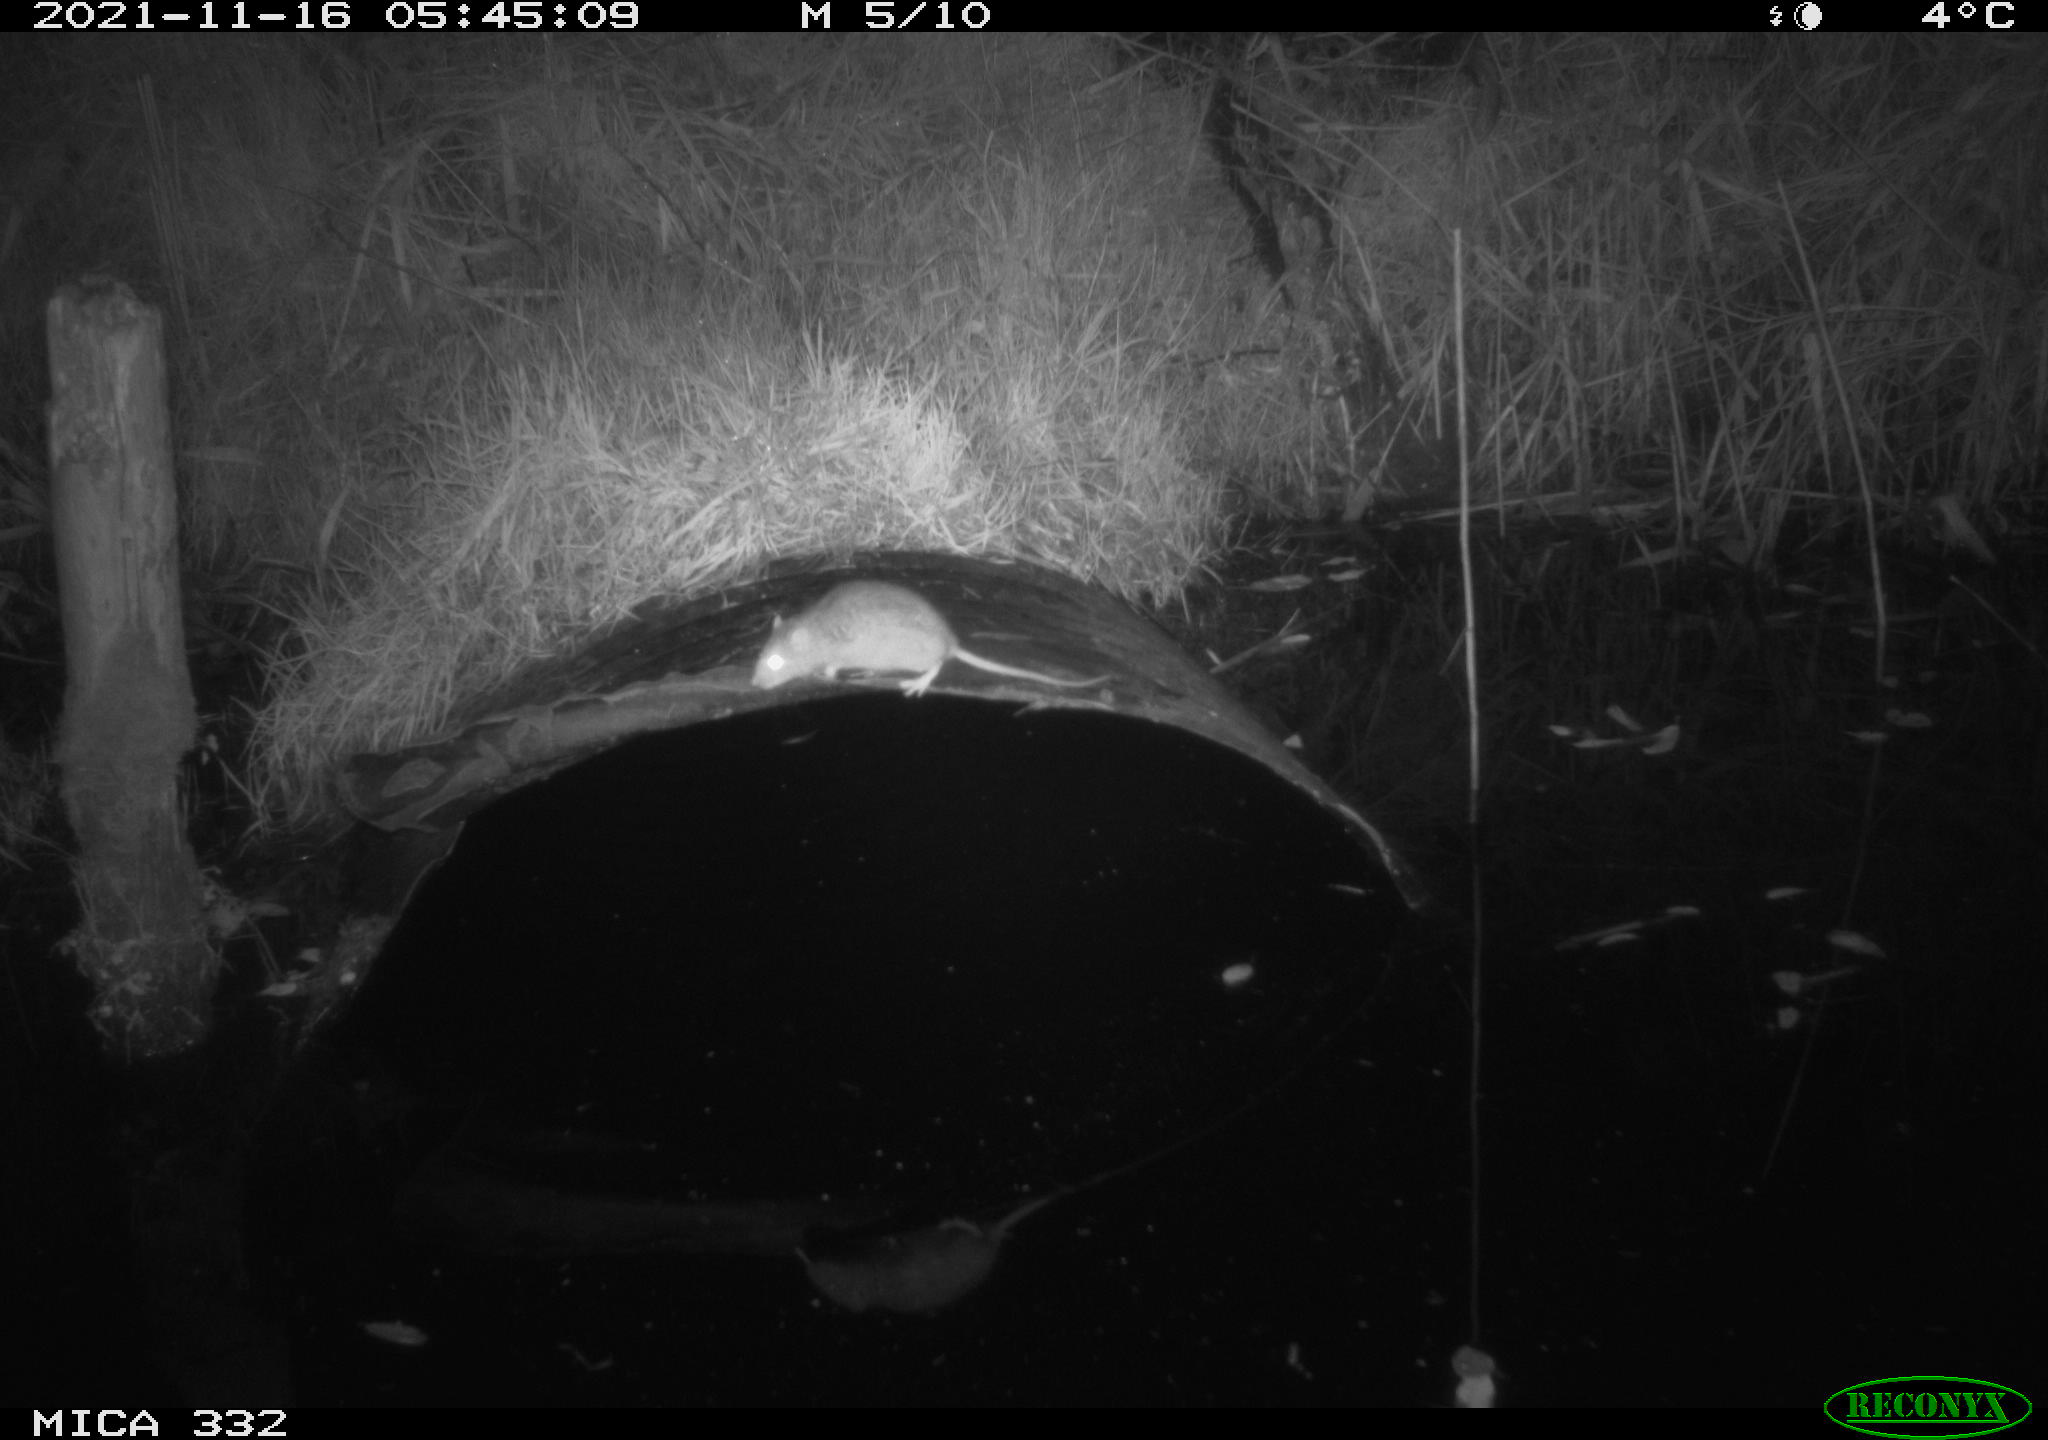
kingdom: Animalia
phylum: Chordata
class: Mammalia
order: Rodentia
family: Muridae
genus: Rattus
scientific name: Rattus norvegicus
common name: Brown rat
